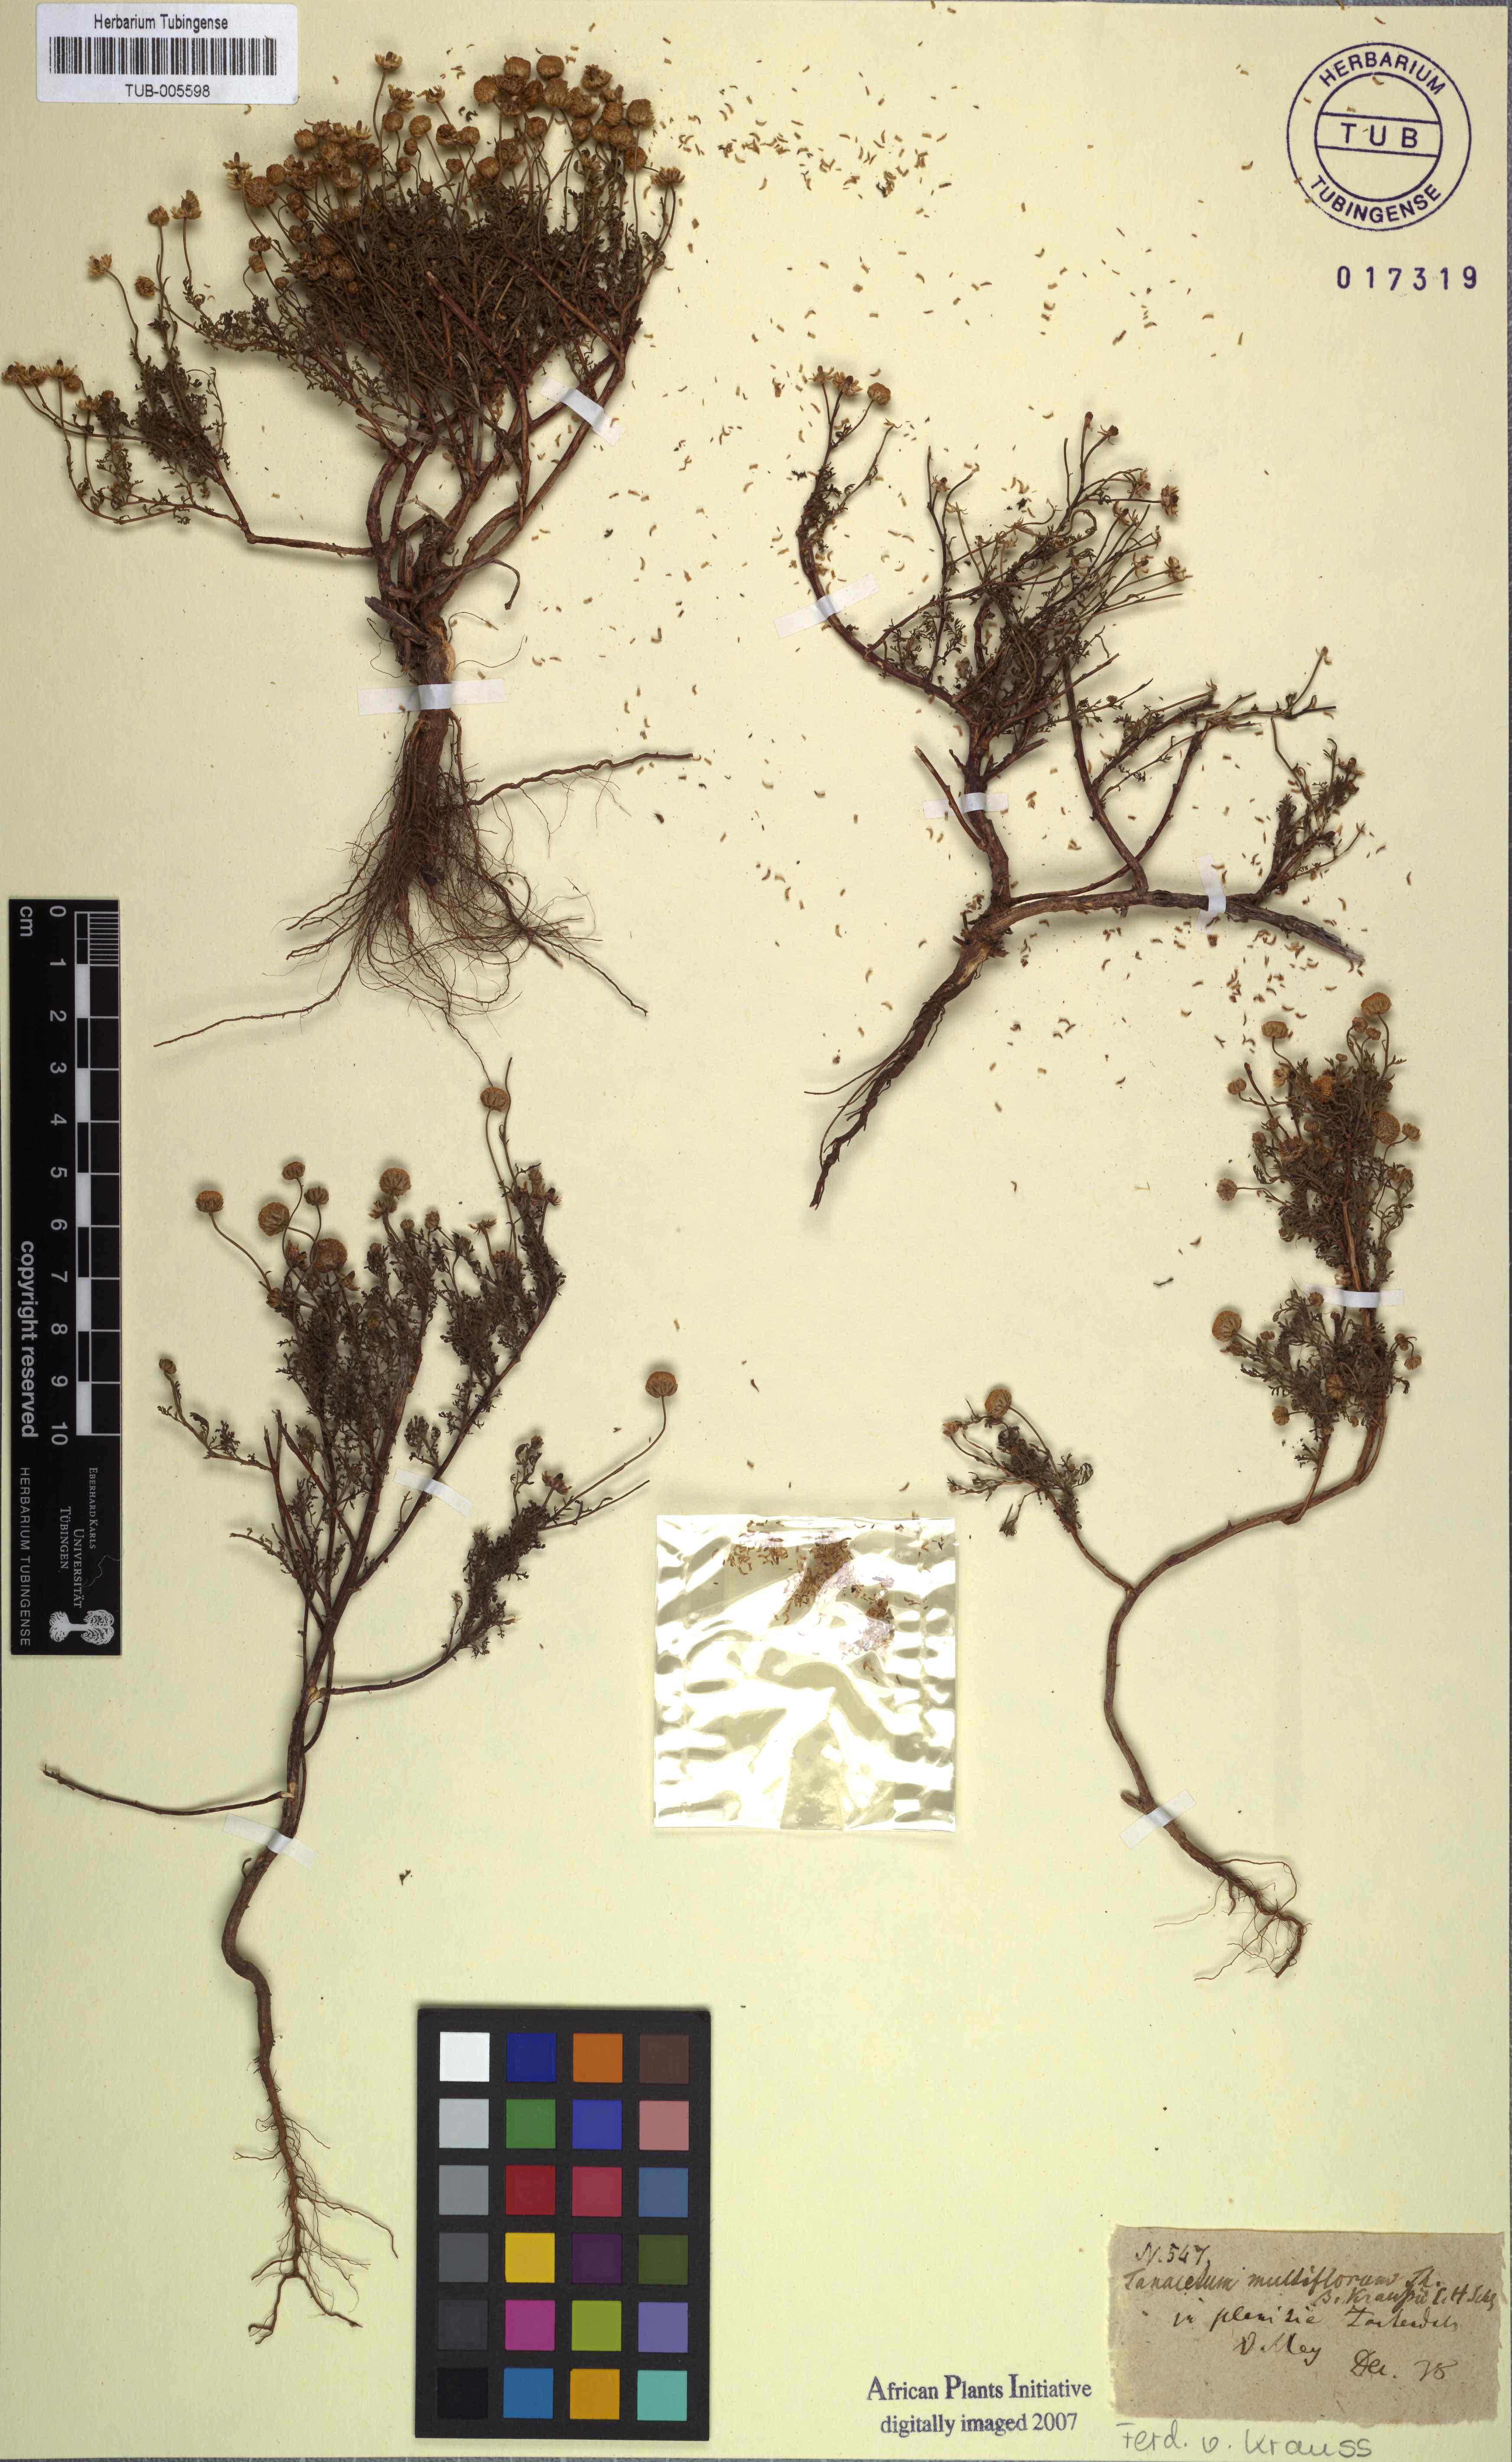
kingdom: Plantae
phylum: Tracheophyta
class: Magnoliopsida
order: Asterales
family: Asteraceae
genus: Oncosiphon
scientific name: Oncosiphon suffruticosus
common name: Shrubby mayweed
